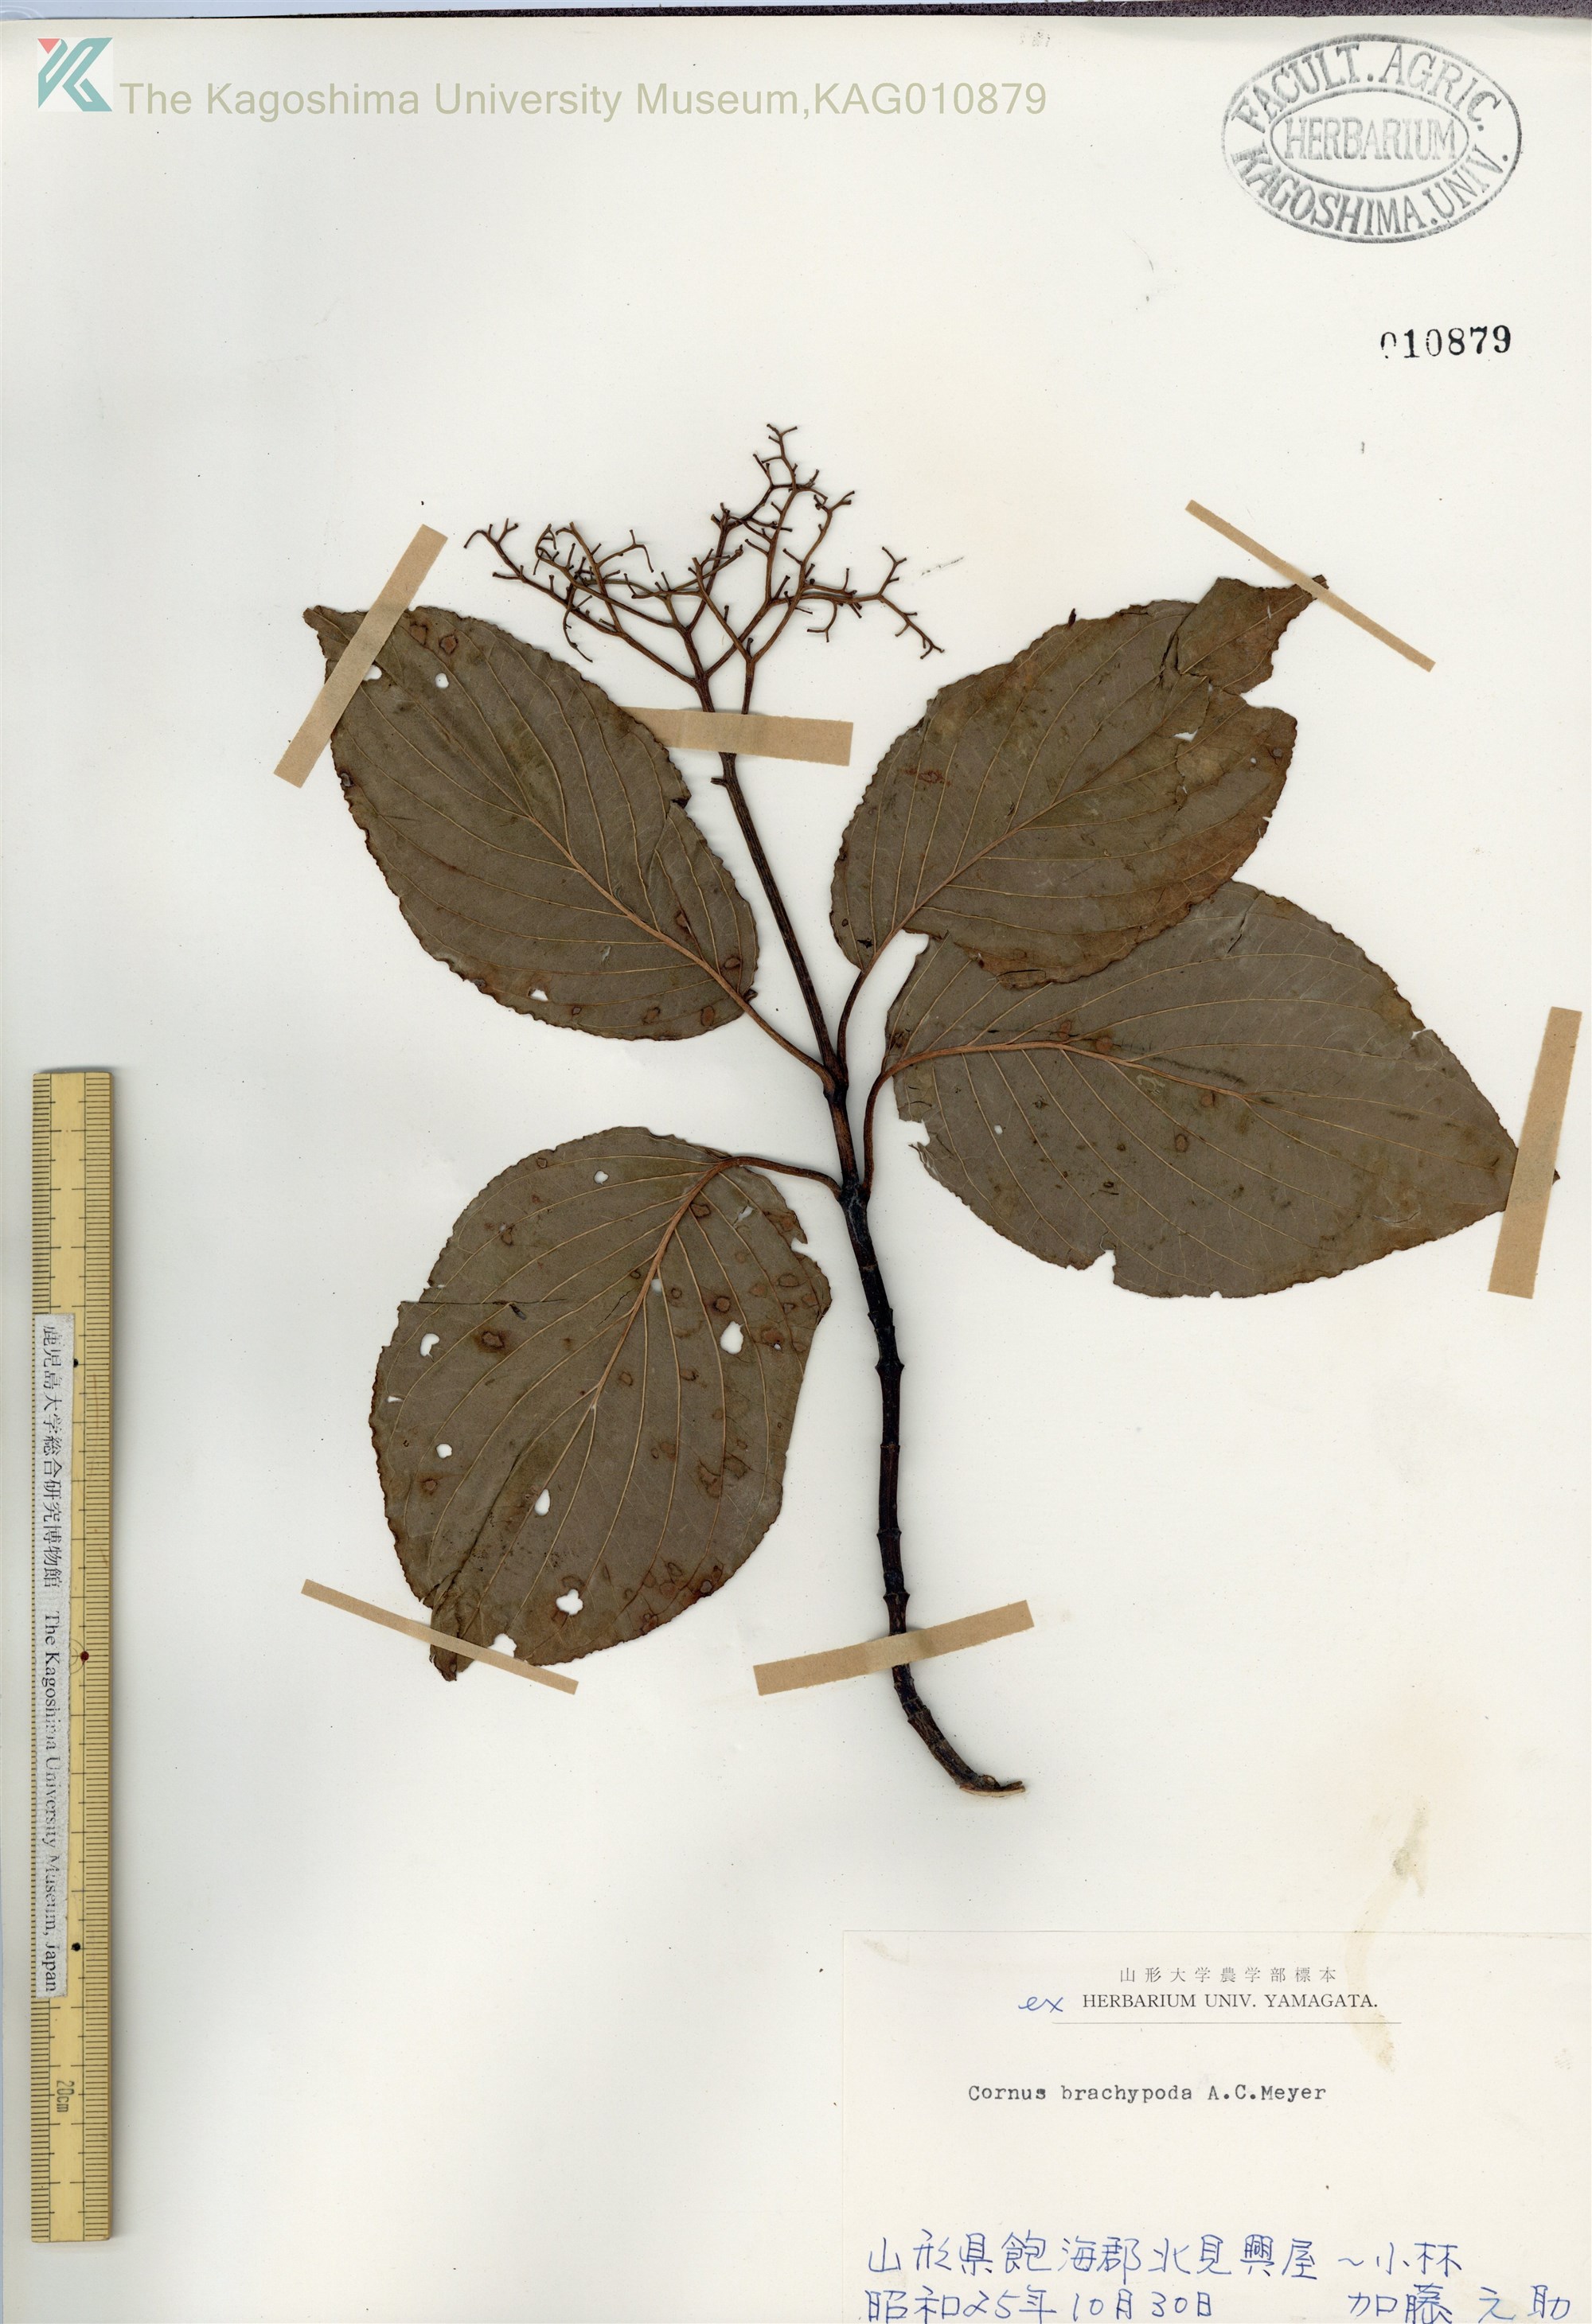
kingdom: Plantae
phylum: Tracheophyta
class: Magnoliopsida
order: Cornales
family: Cornaceae
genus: Cornus
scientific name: Cornus macrophylla
